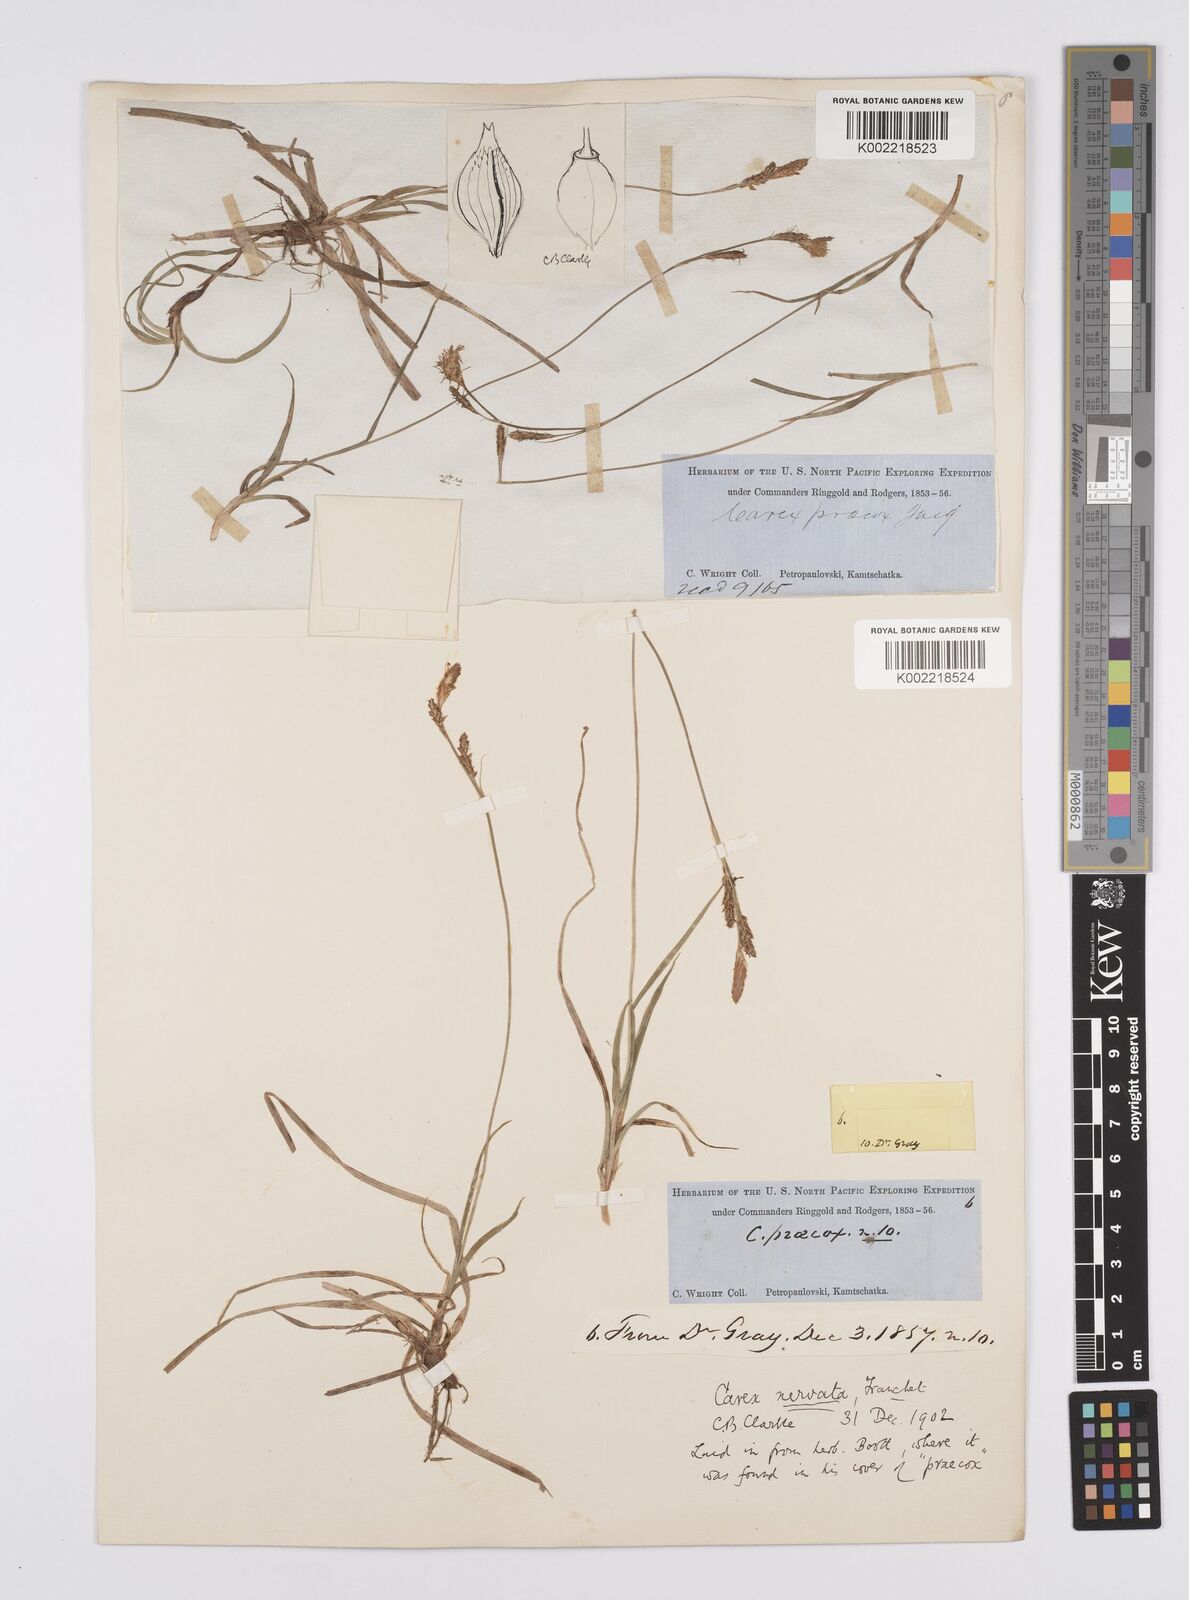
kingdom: Plantae
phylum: Tracheophyta
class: Liliopsida
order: Poales
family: Cyperaceae
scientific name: Cyperaceae
